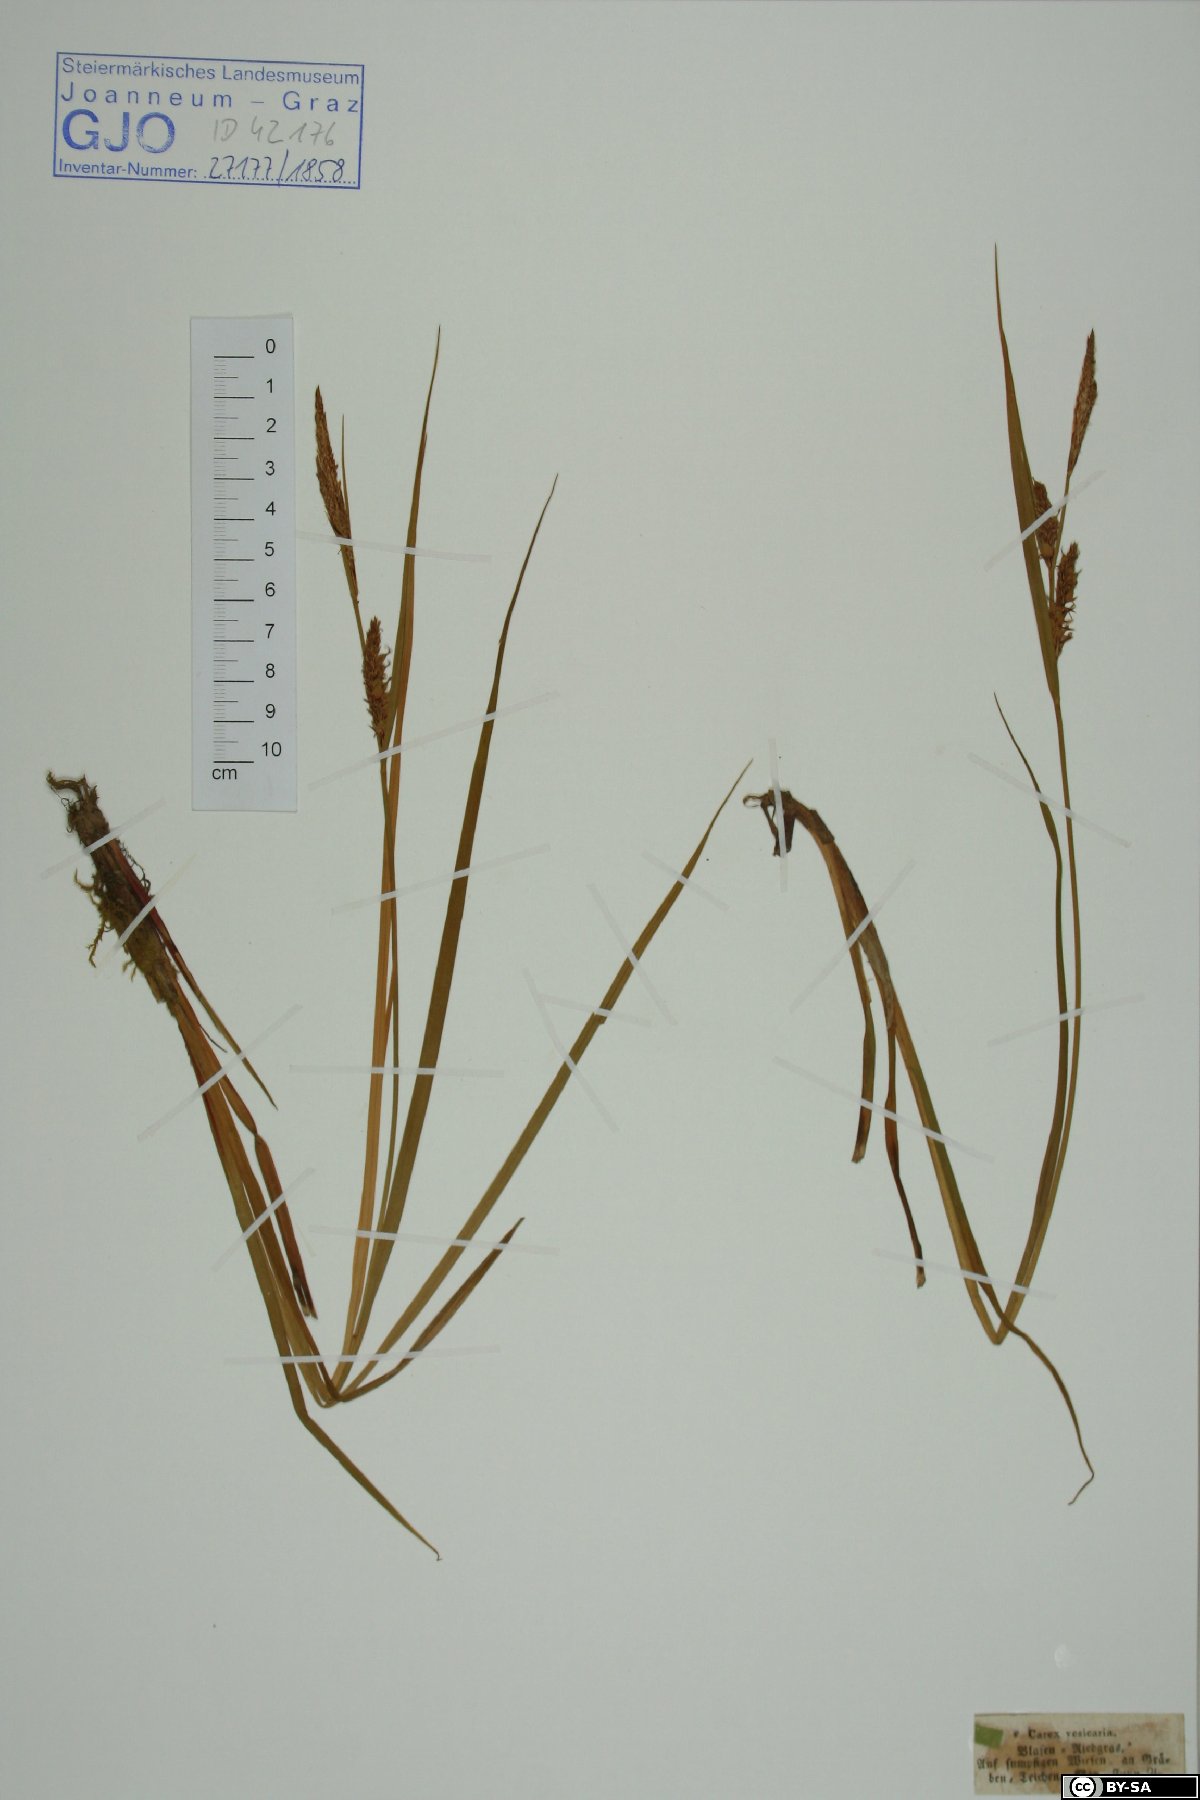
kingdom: Plantae
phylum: Tracheophyta
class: Liliopsida
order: Poales
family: Cyperaceae
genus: Carex
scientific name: Carex vesicaria
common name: Bladder-sedge
